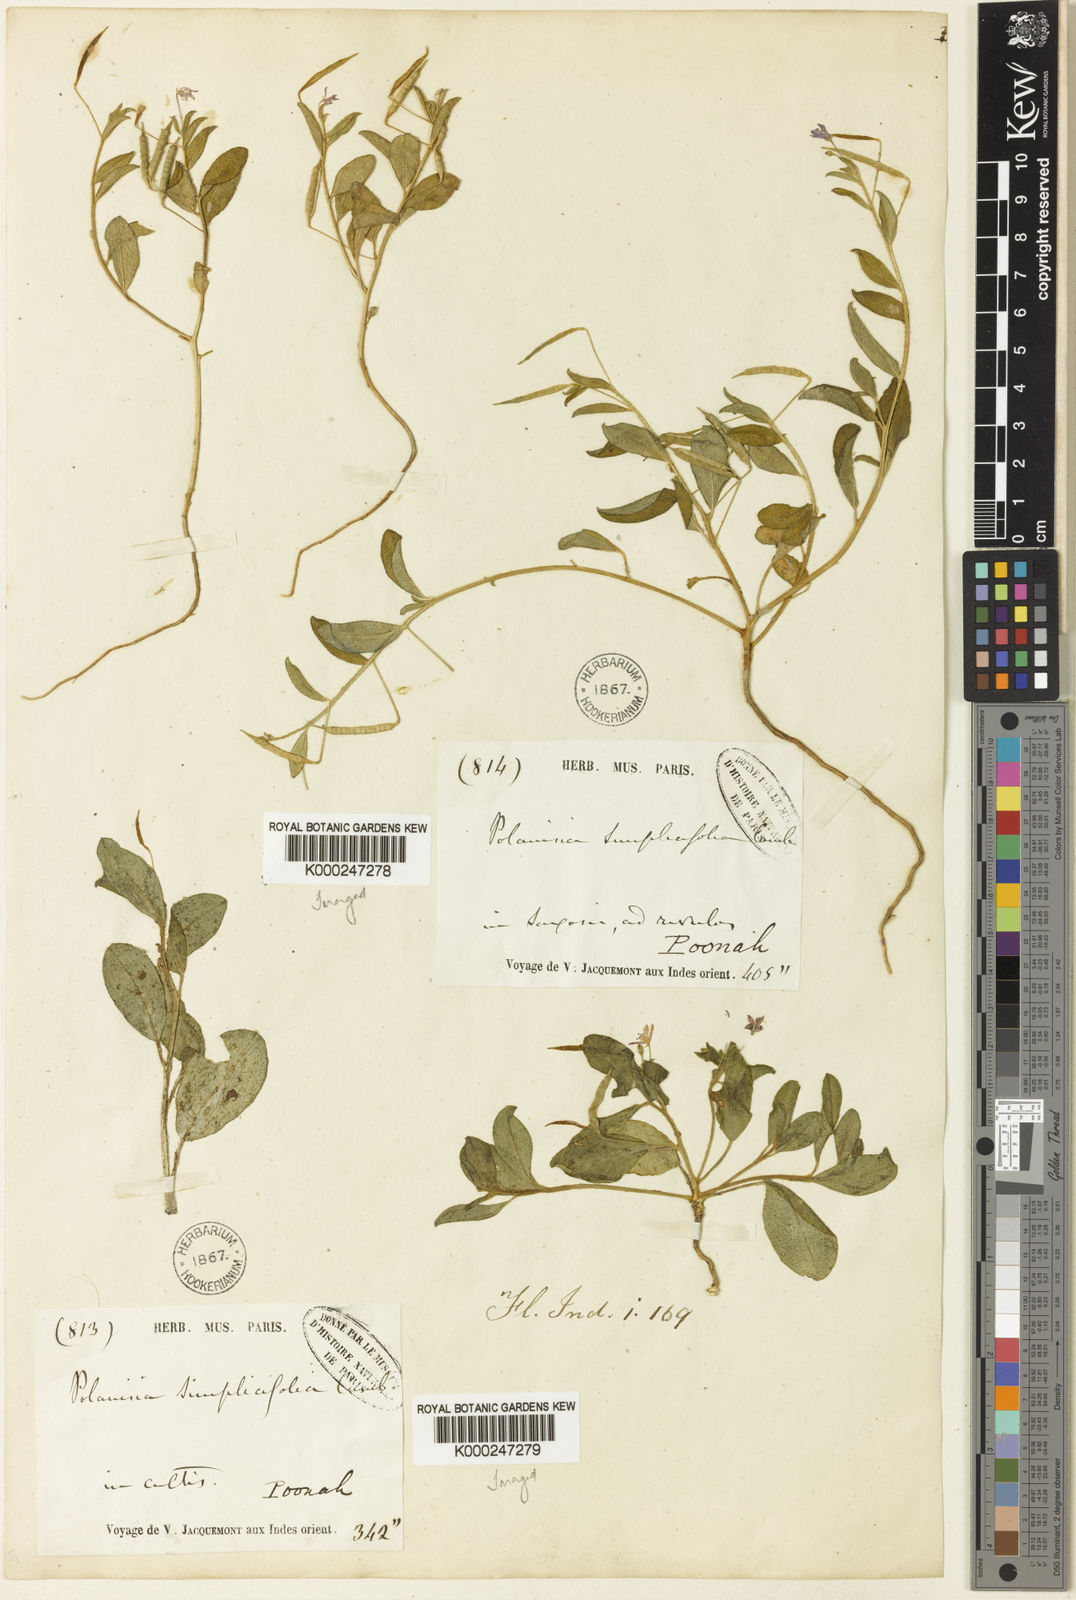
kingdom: Plantae
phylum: Tracheophyta
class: Magnoliopsida
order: Brassicales
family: Cleomaceae
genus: Corynandra
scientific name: Corynandra simplicifolia
